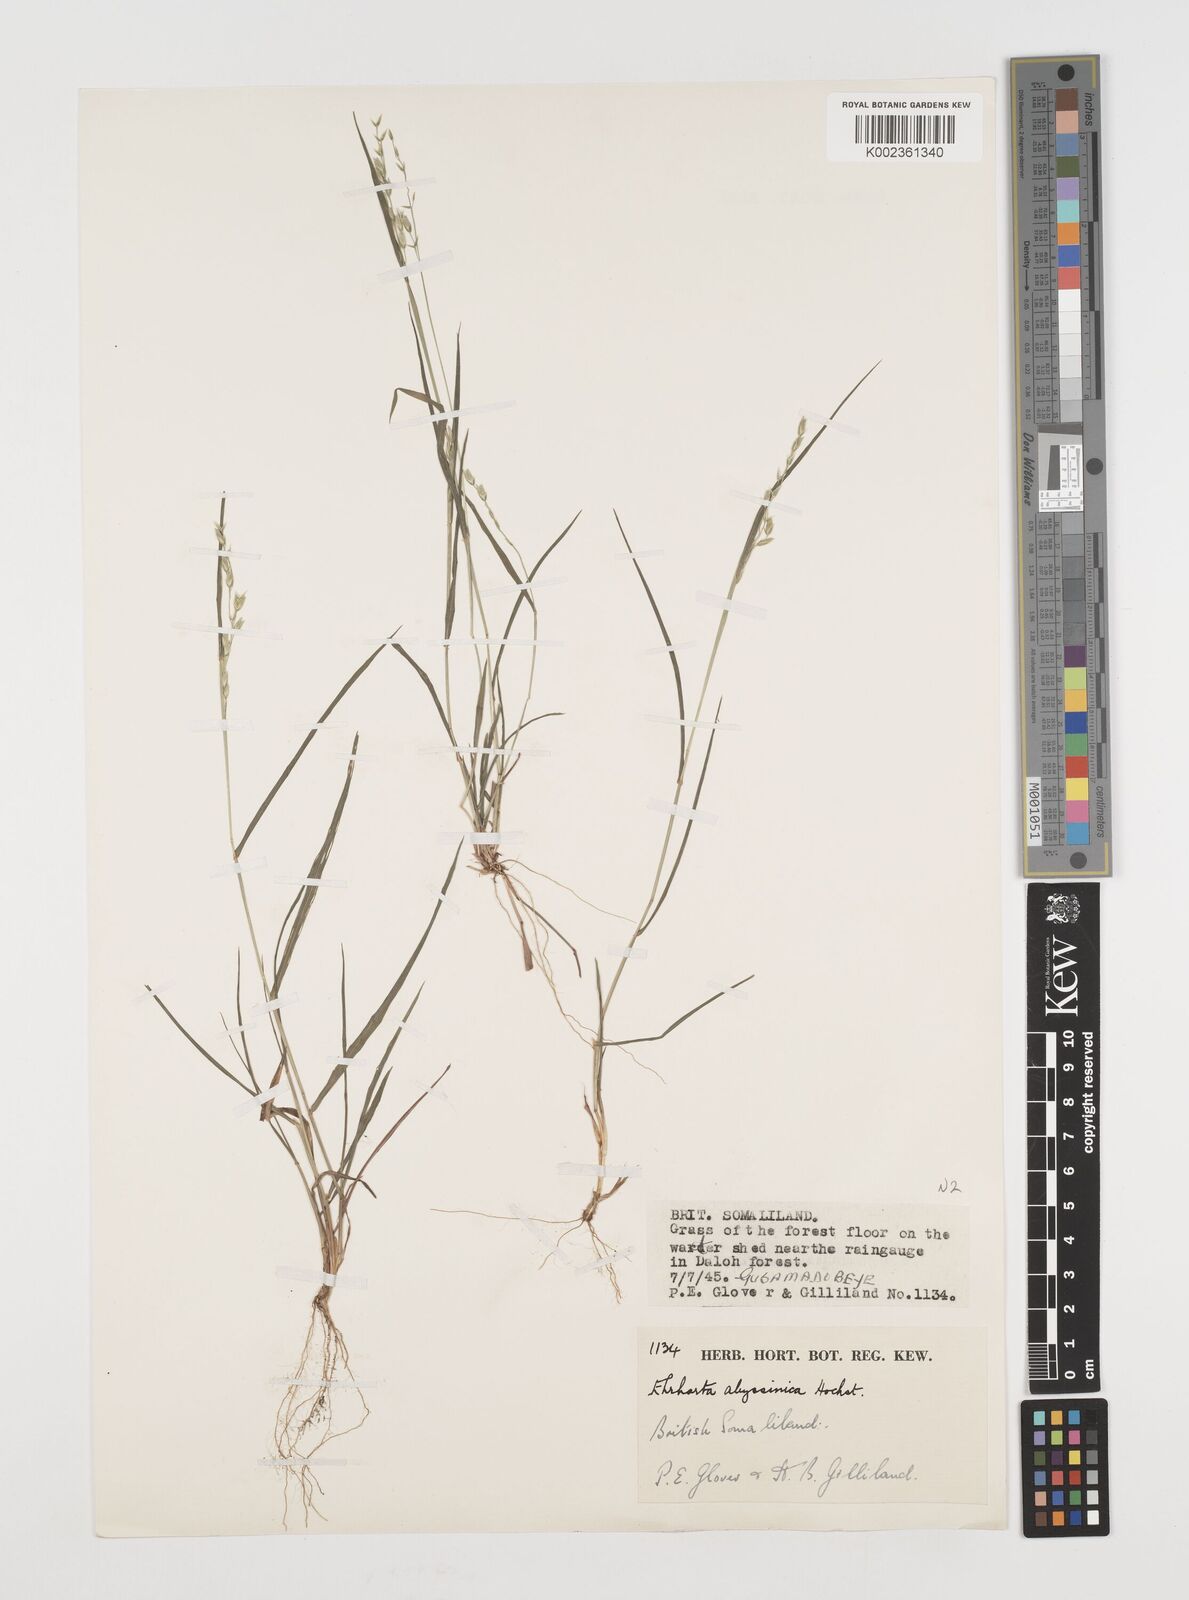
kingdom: Plantae
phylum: Tracheophyta
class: Liliopsida
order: Poales
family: Poaceae
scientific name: Poaceae
